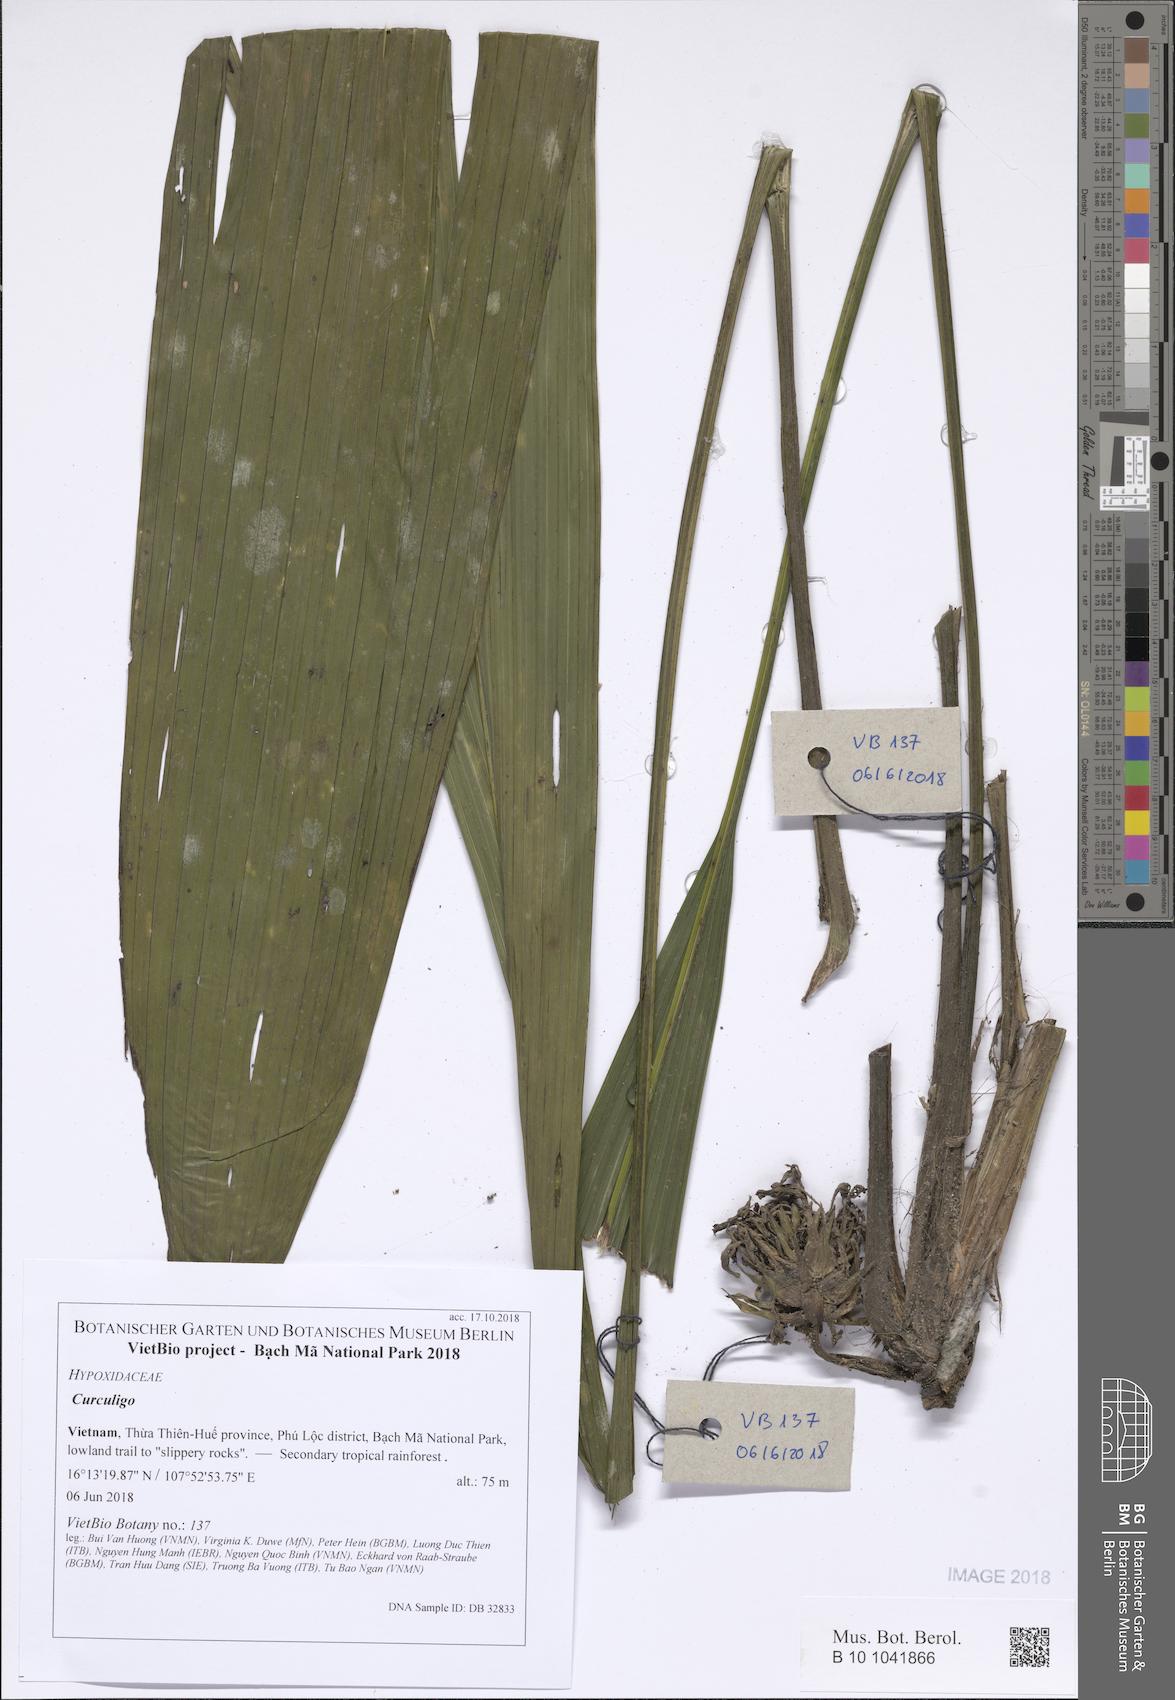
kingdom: Plantae
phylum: Tracheophyta
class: Liliopsida
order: Asparagales
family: Hypoxidaceae
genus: Curculigo
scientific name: Curculigo
